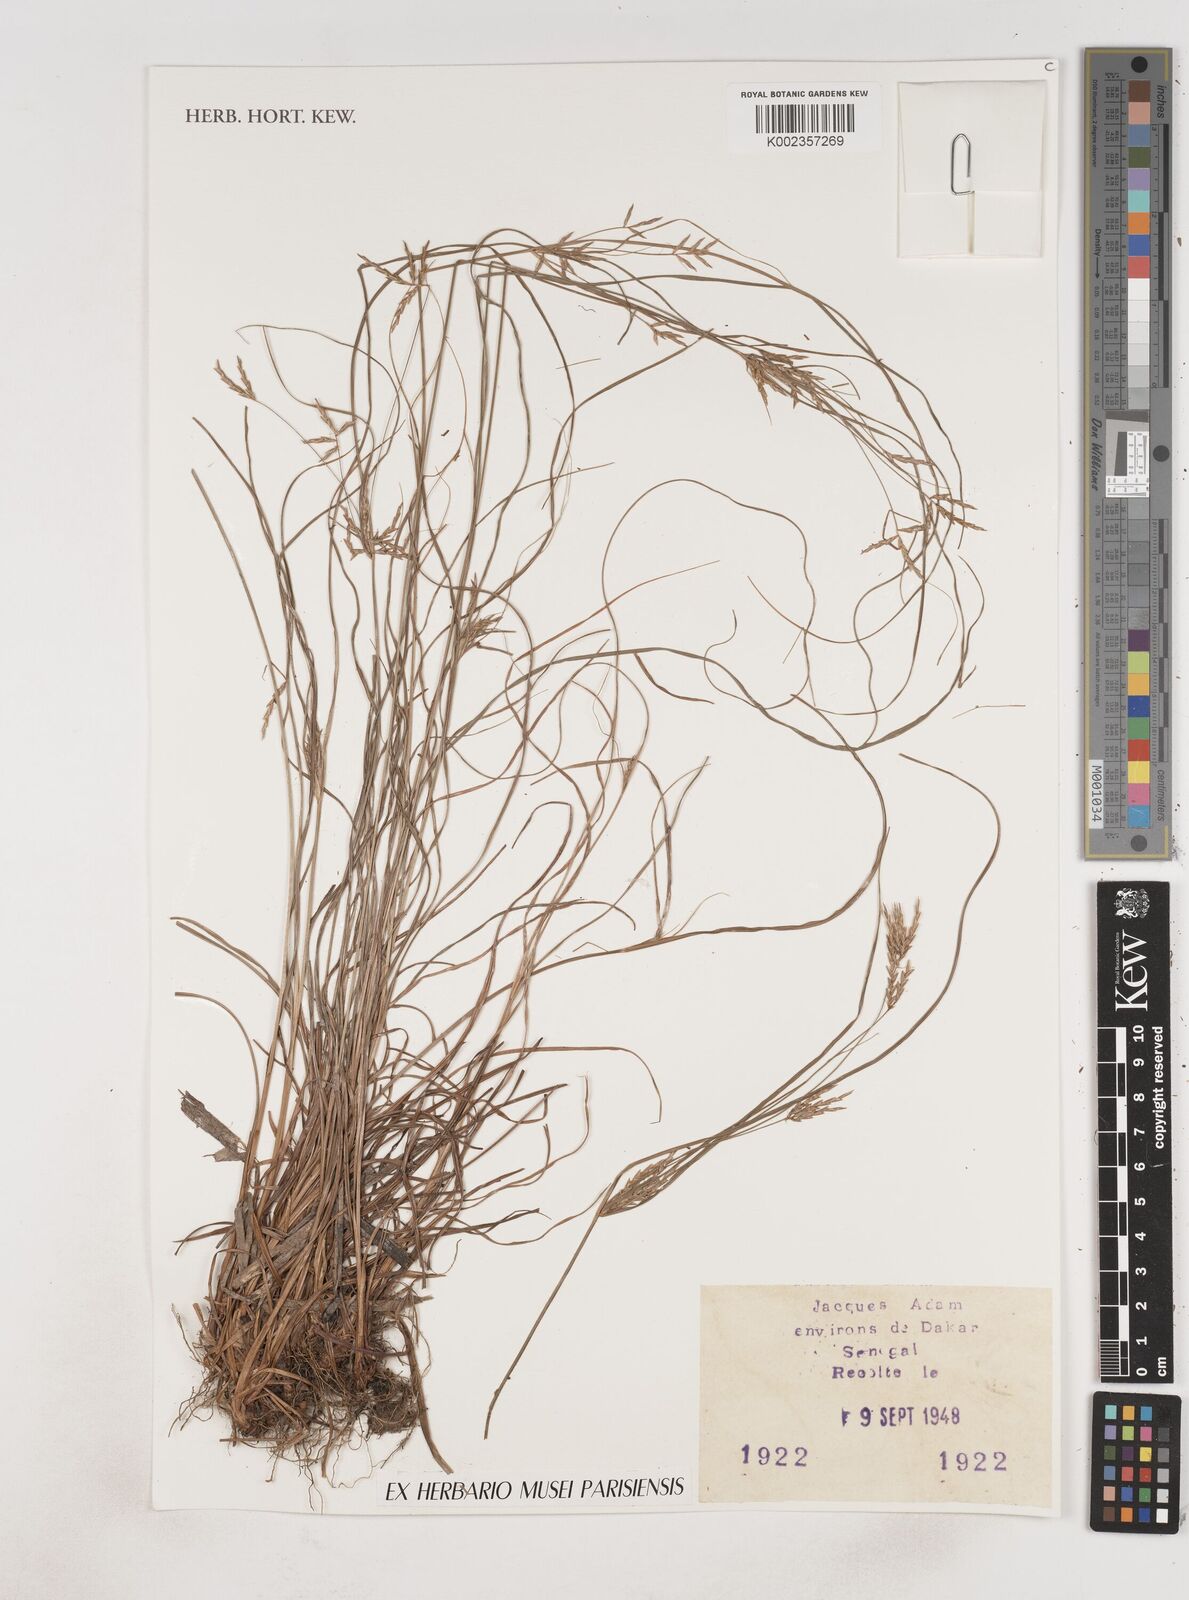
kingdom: Plantae
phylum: Tracheophyta
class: Liliopsida
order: Poales
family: Cyperaceae
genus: Cyperus
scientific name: Cyperus
